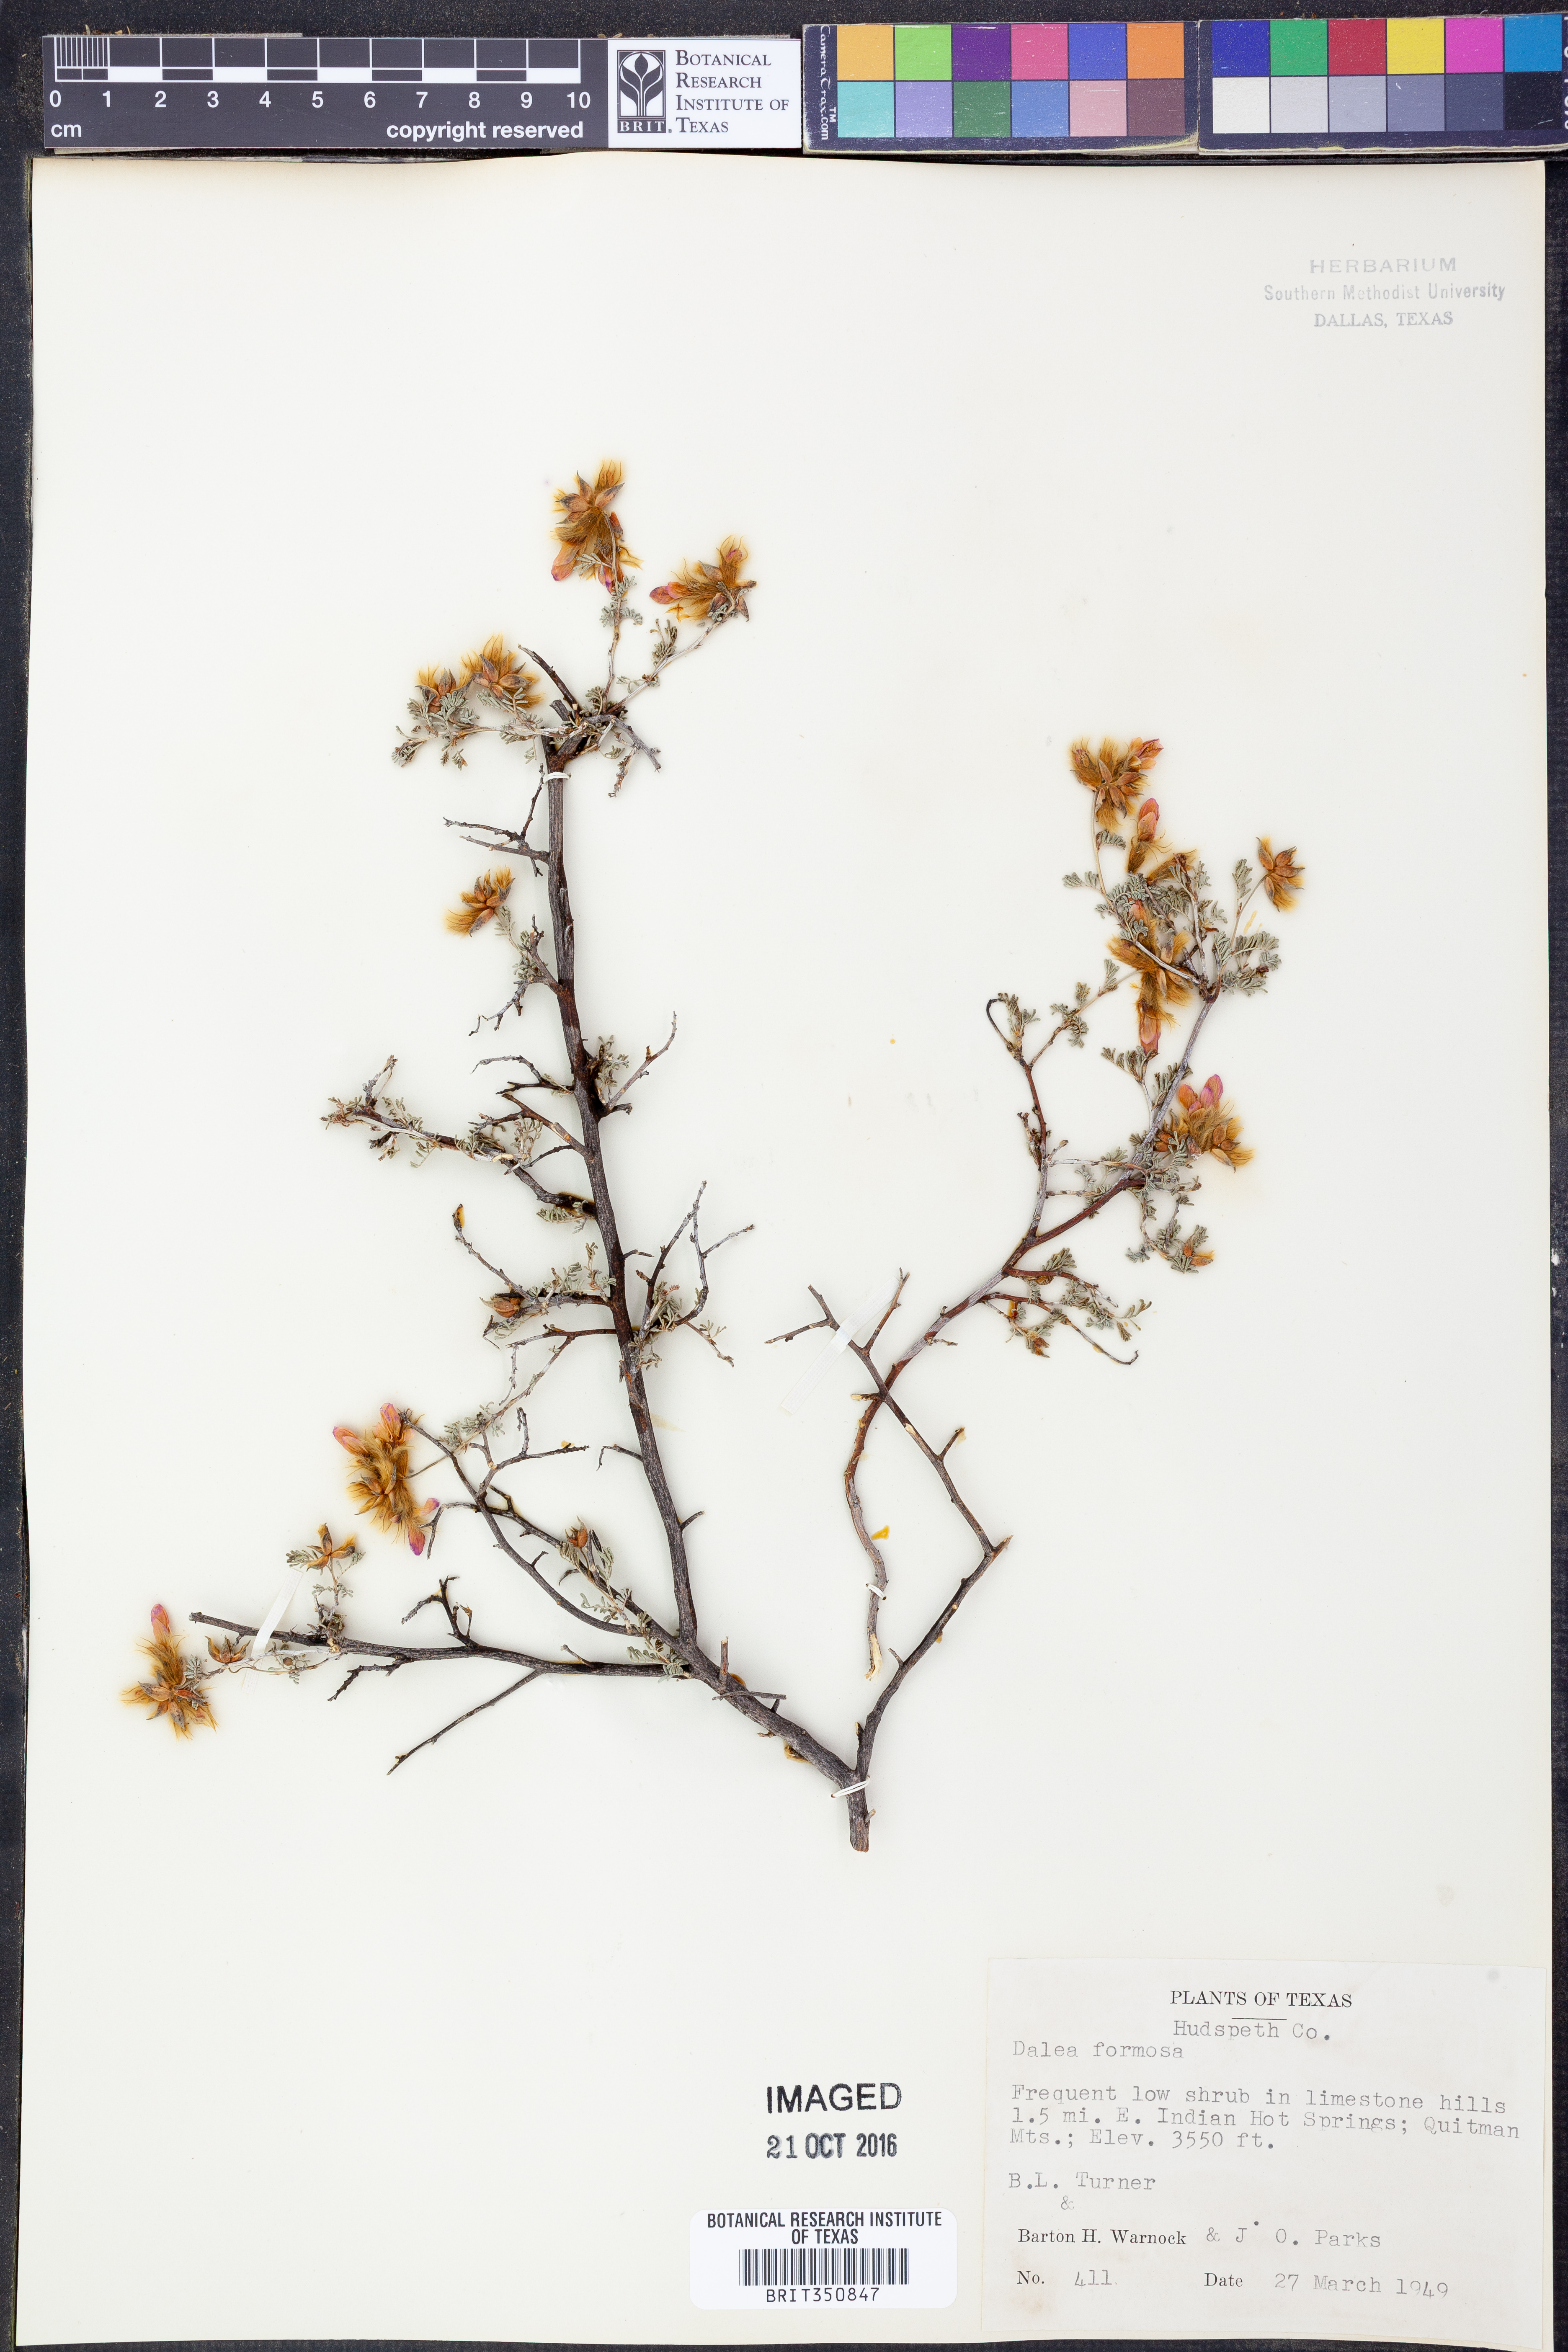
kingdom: Plantae
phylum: Tracheophyta
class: Magnoliopsida
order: Fabales
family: Fabaceae
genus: Dalea
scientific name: Dalea formosa
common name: Feather-plume dalea
